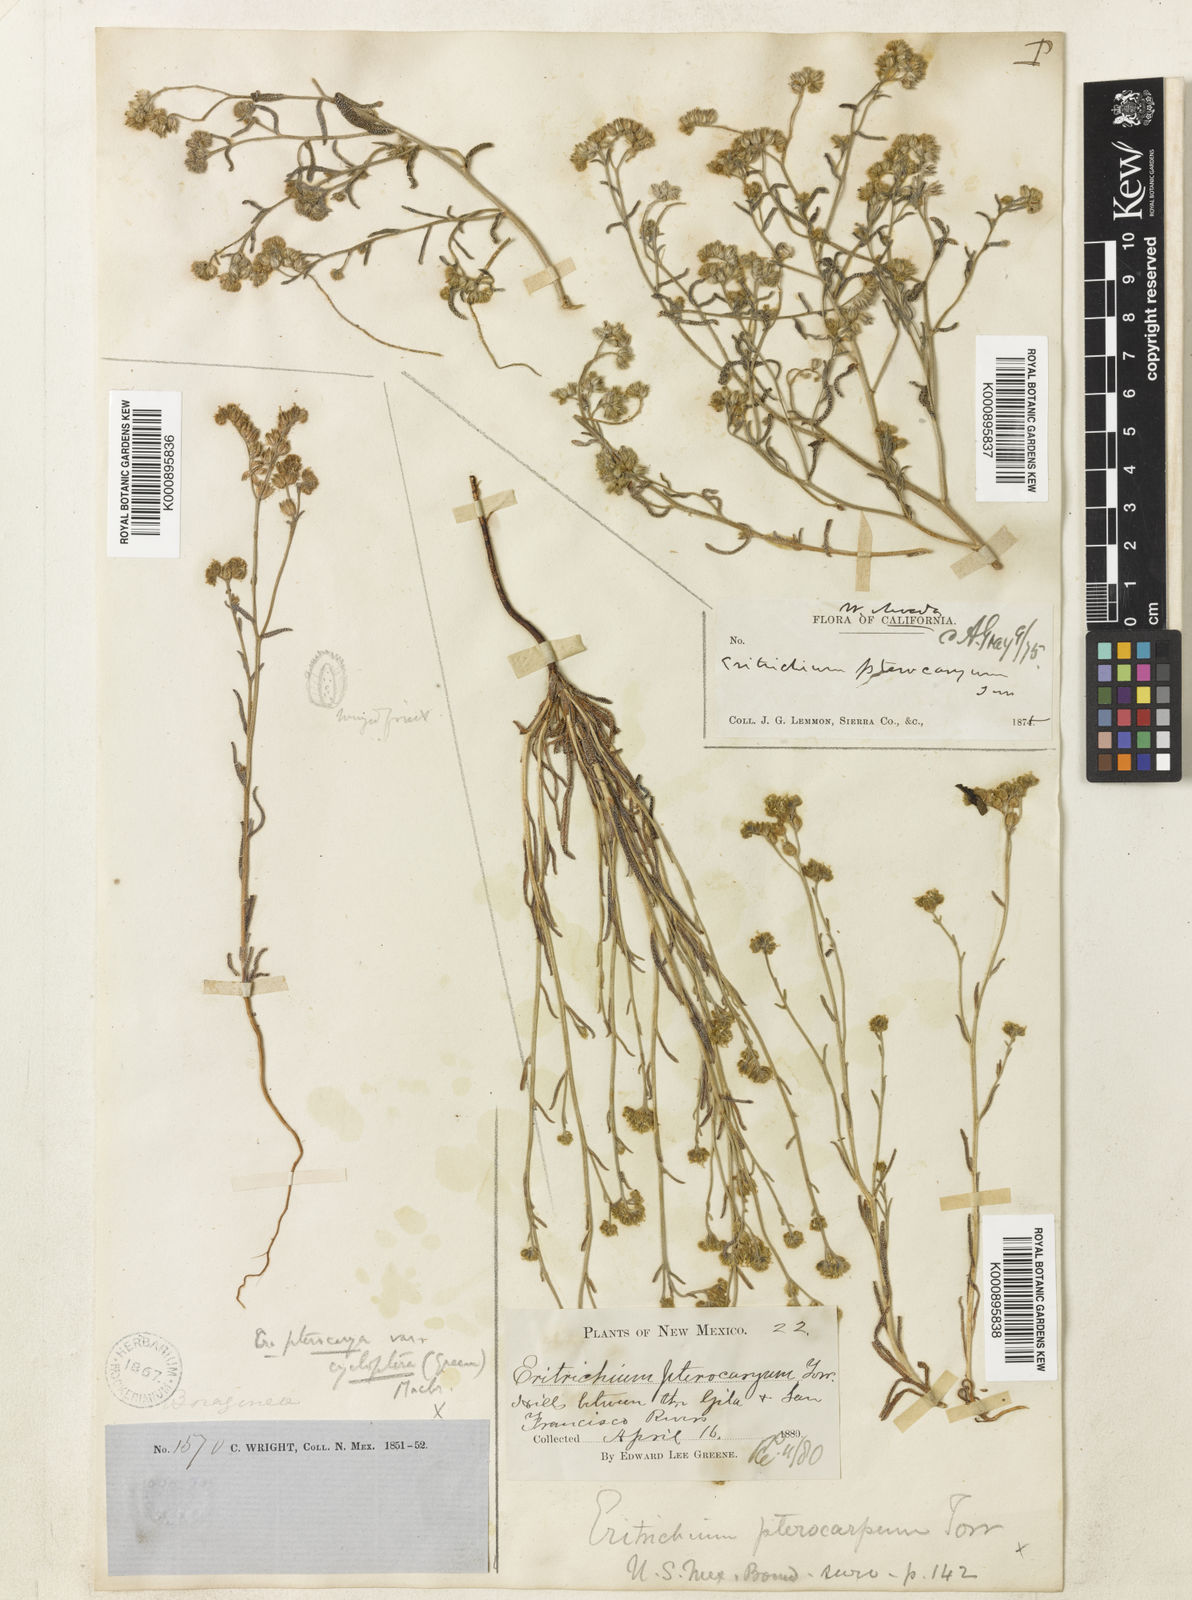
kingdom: Plantae
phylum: Tracheophyta
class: Magnoliopsida
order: Boraginales
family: Boraginaceae
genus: Cryptantha
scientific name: Cryptantha pterocarya
